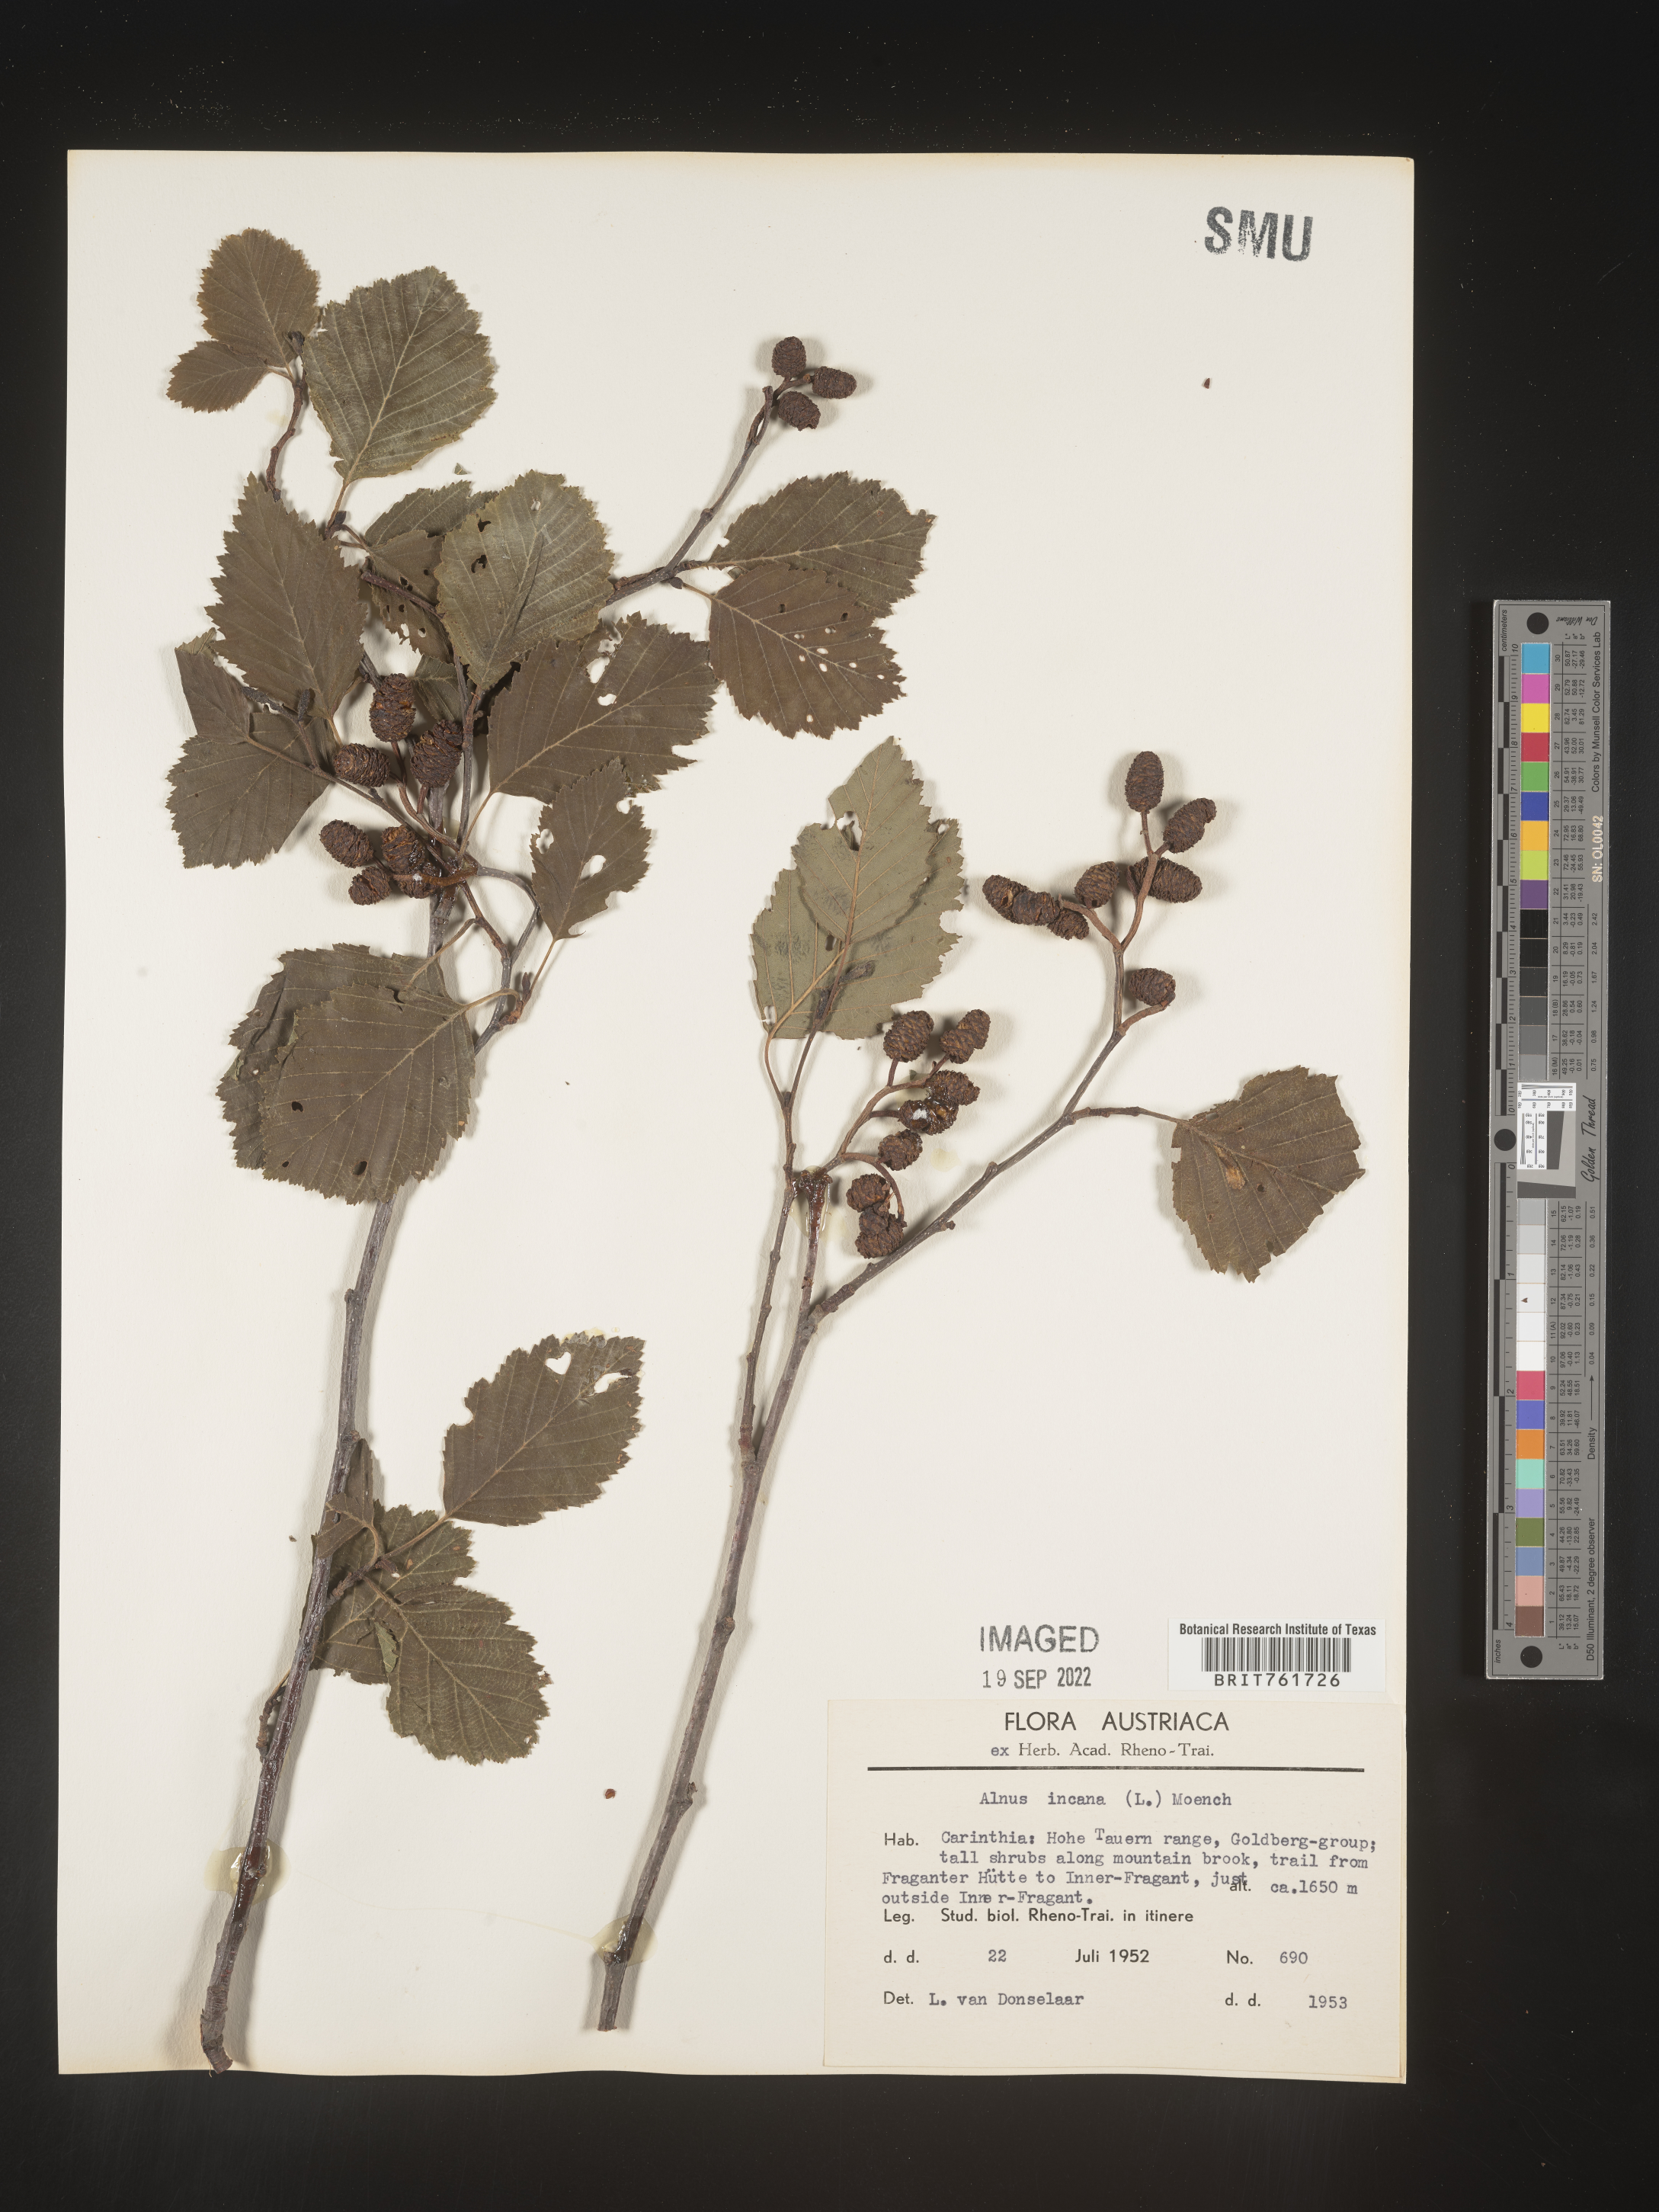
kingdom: Plantae
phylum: Tracheophyta
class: Magnoliopsida
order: Fagales
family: Betulaceae
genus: Alnus
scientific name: Alnus
